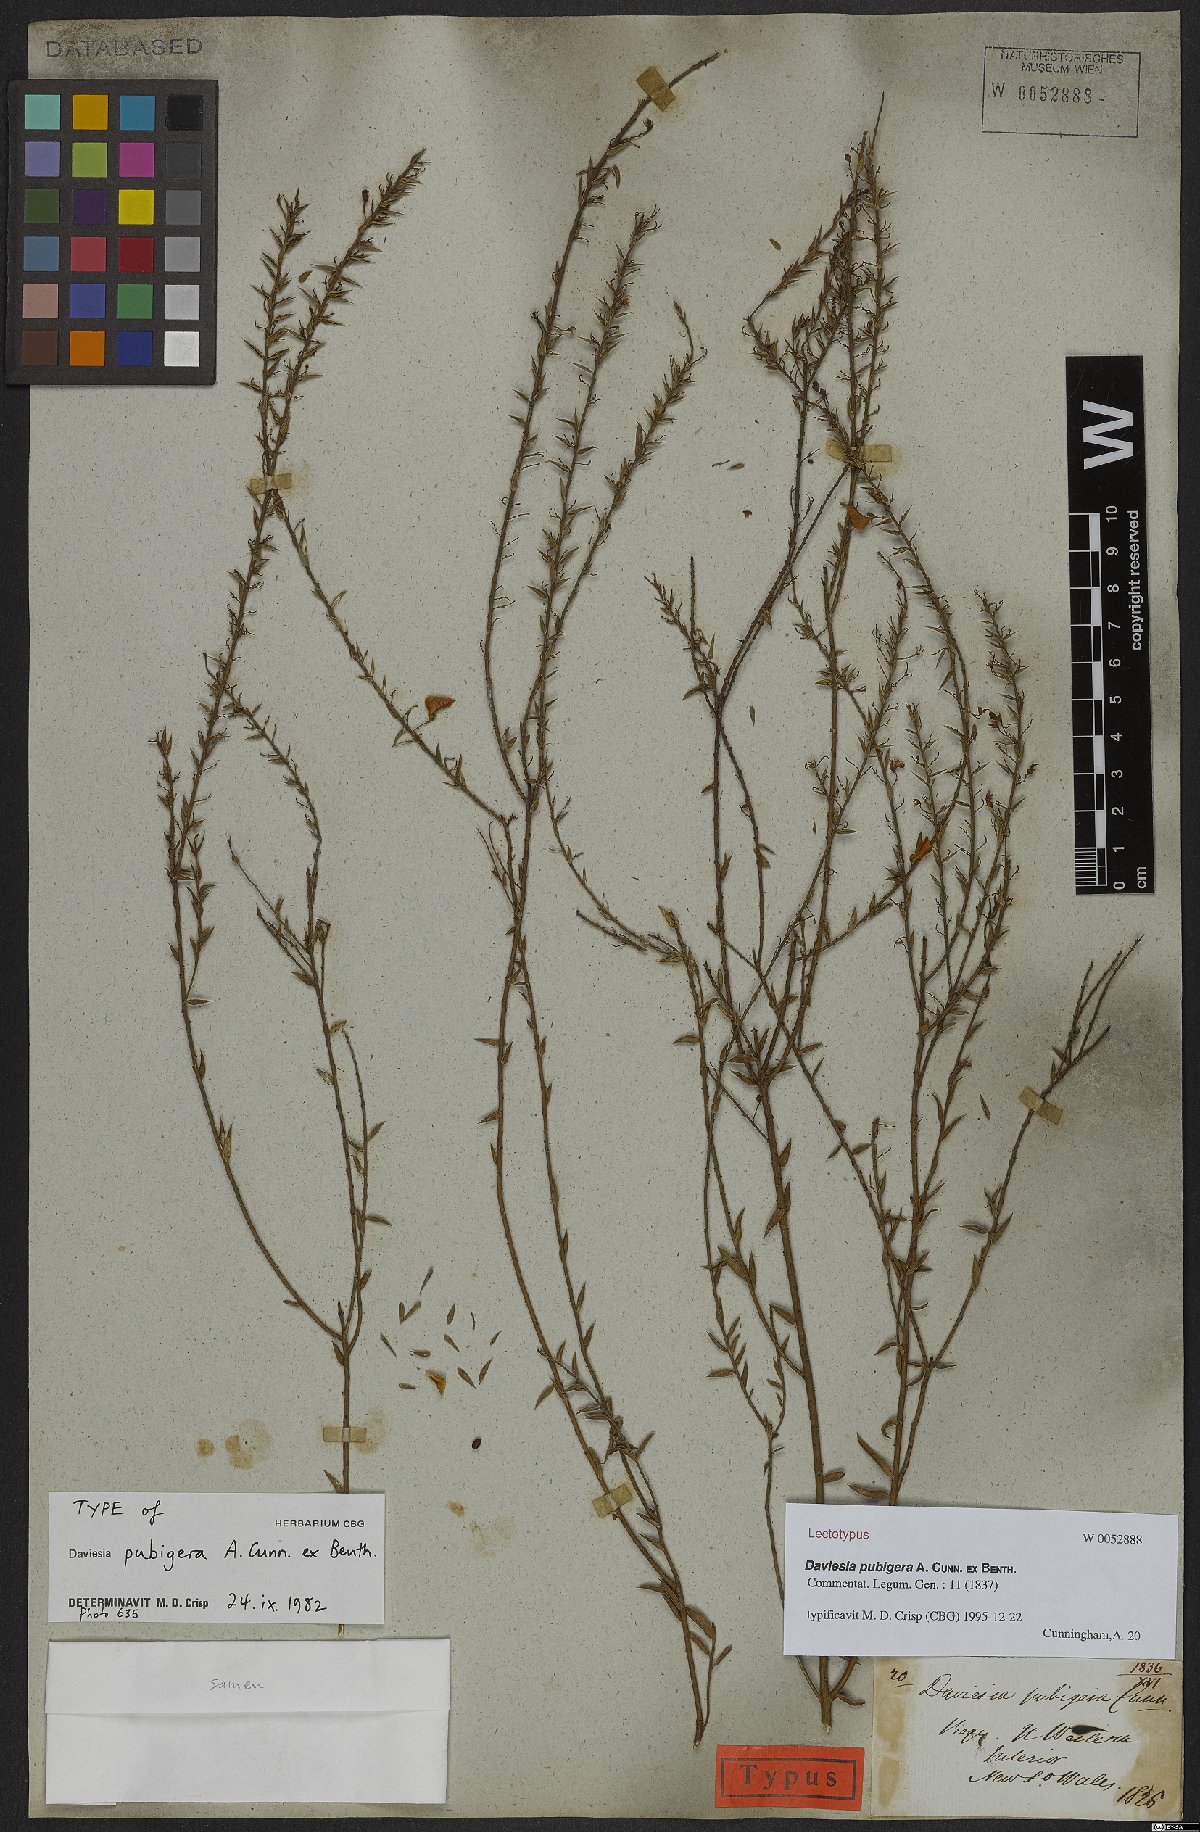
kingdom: Plantae
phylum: Tracheophyta
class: Magnoliopsida
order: Fabales
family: Fabaceae
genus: Daviesia
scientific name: Daviesia pubigera
